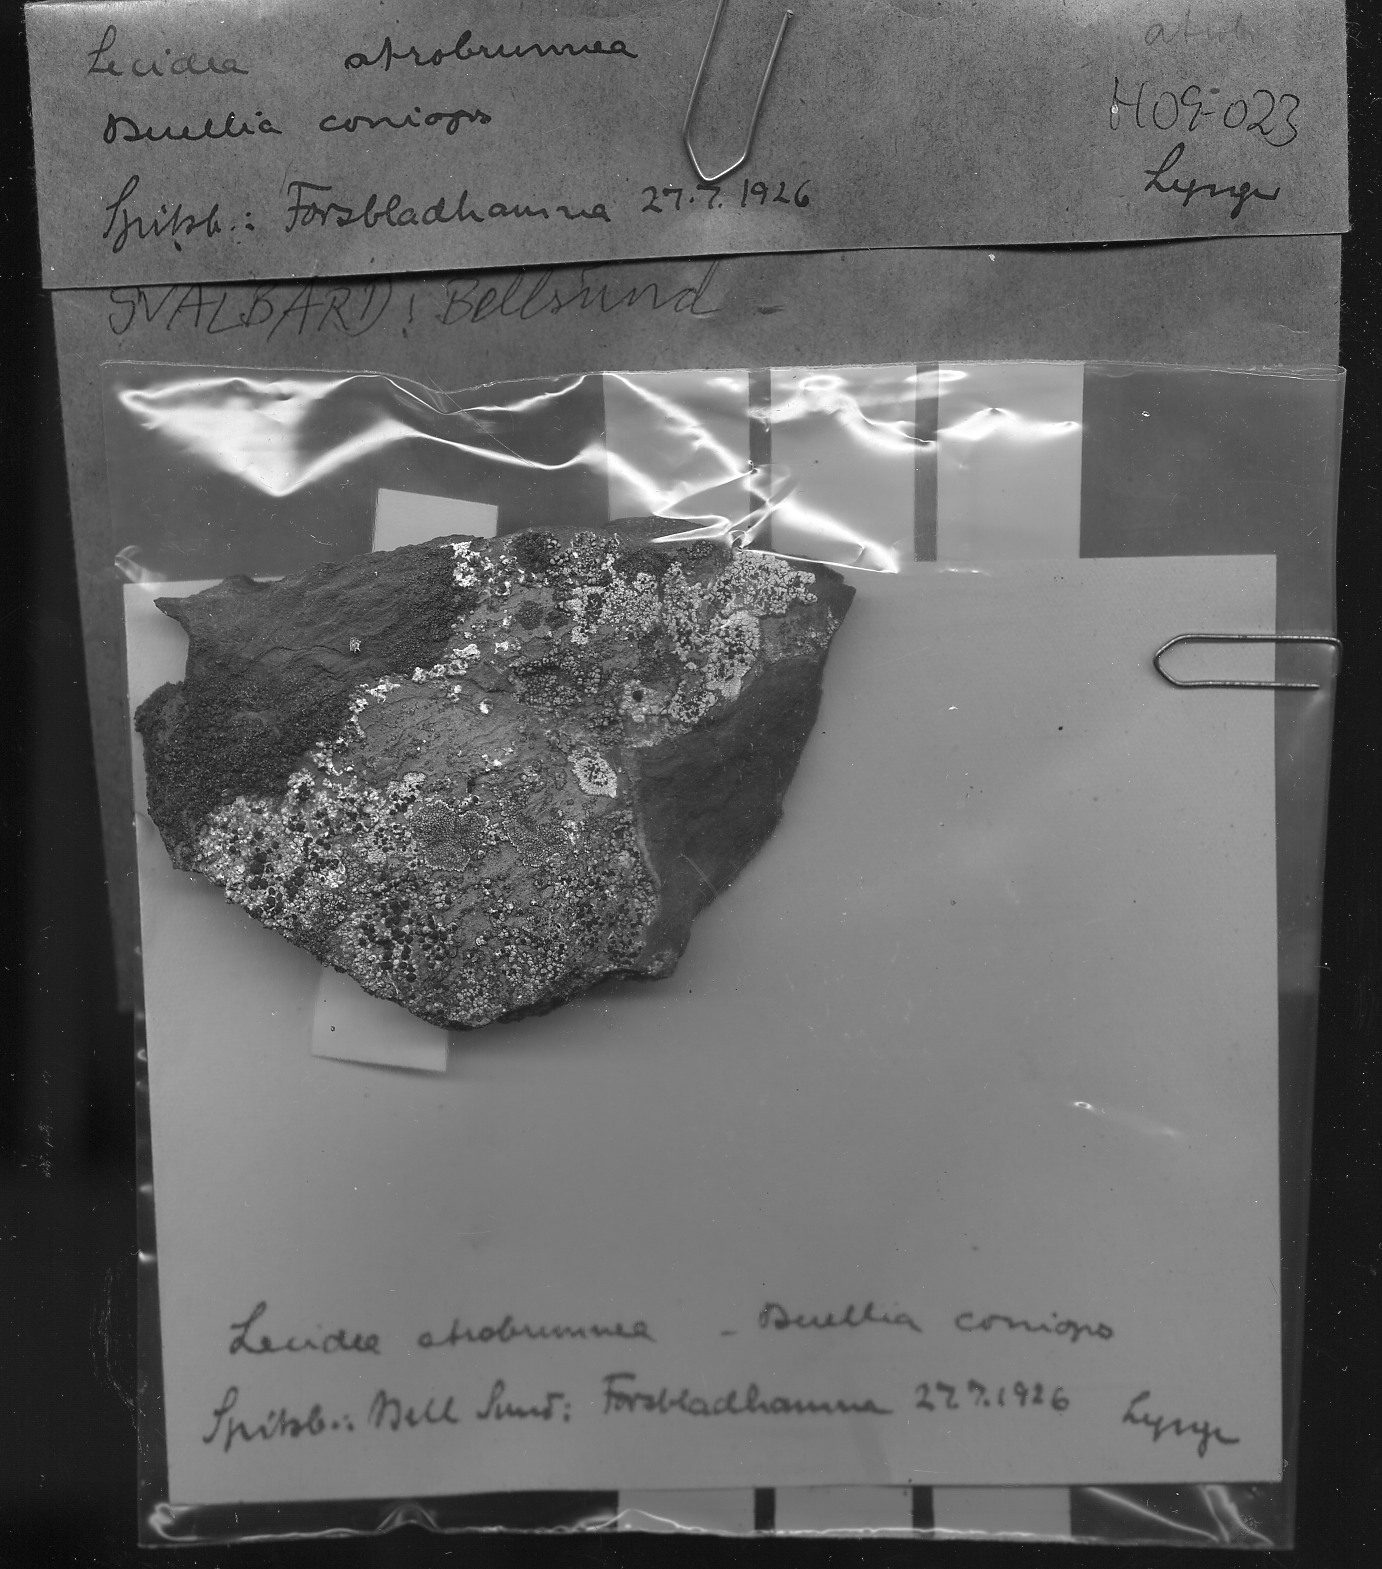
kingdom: Fungi
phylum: Ascomycota
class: Lecanoromycetes
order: Lecideales
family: Lecideaceae
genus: Lecidea
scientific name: Lecidea atrobrunnea
